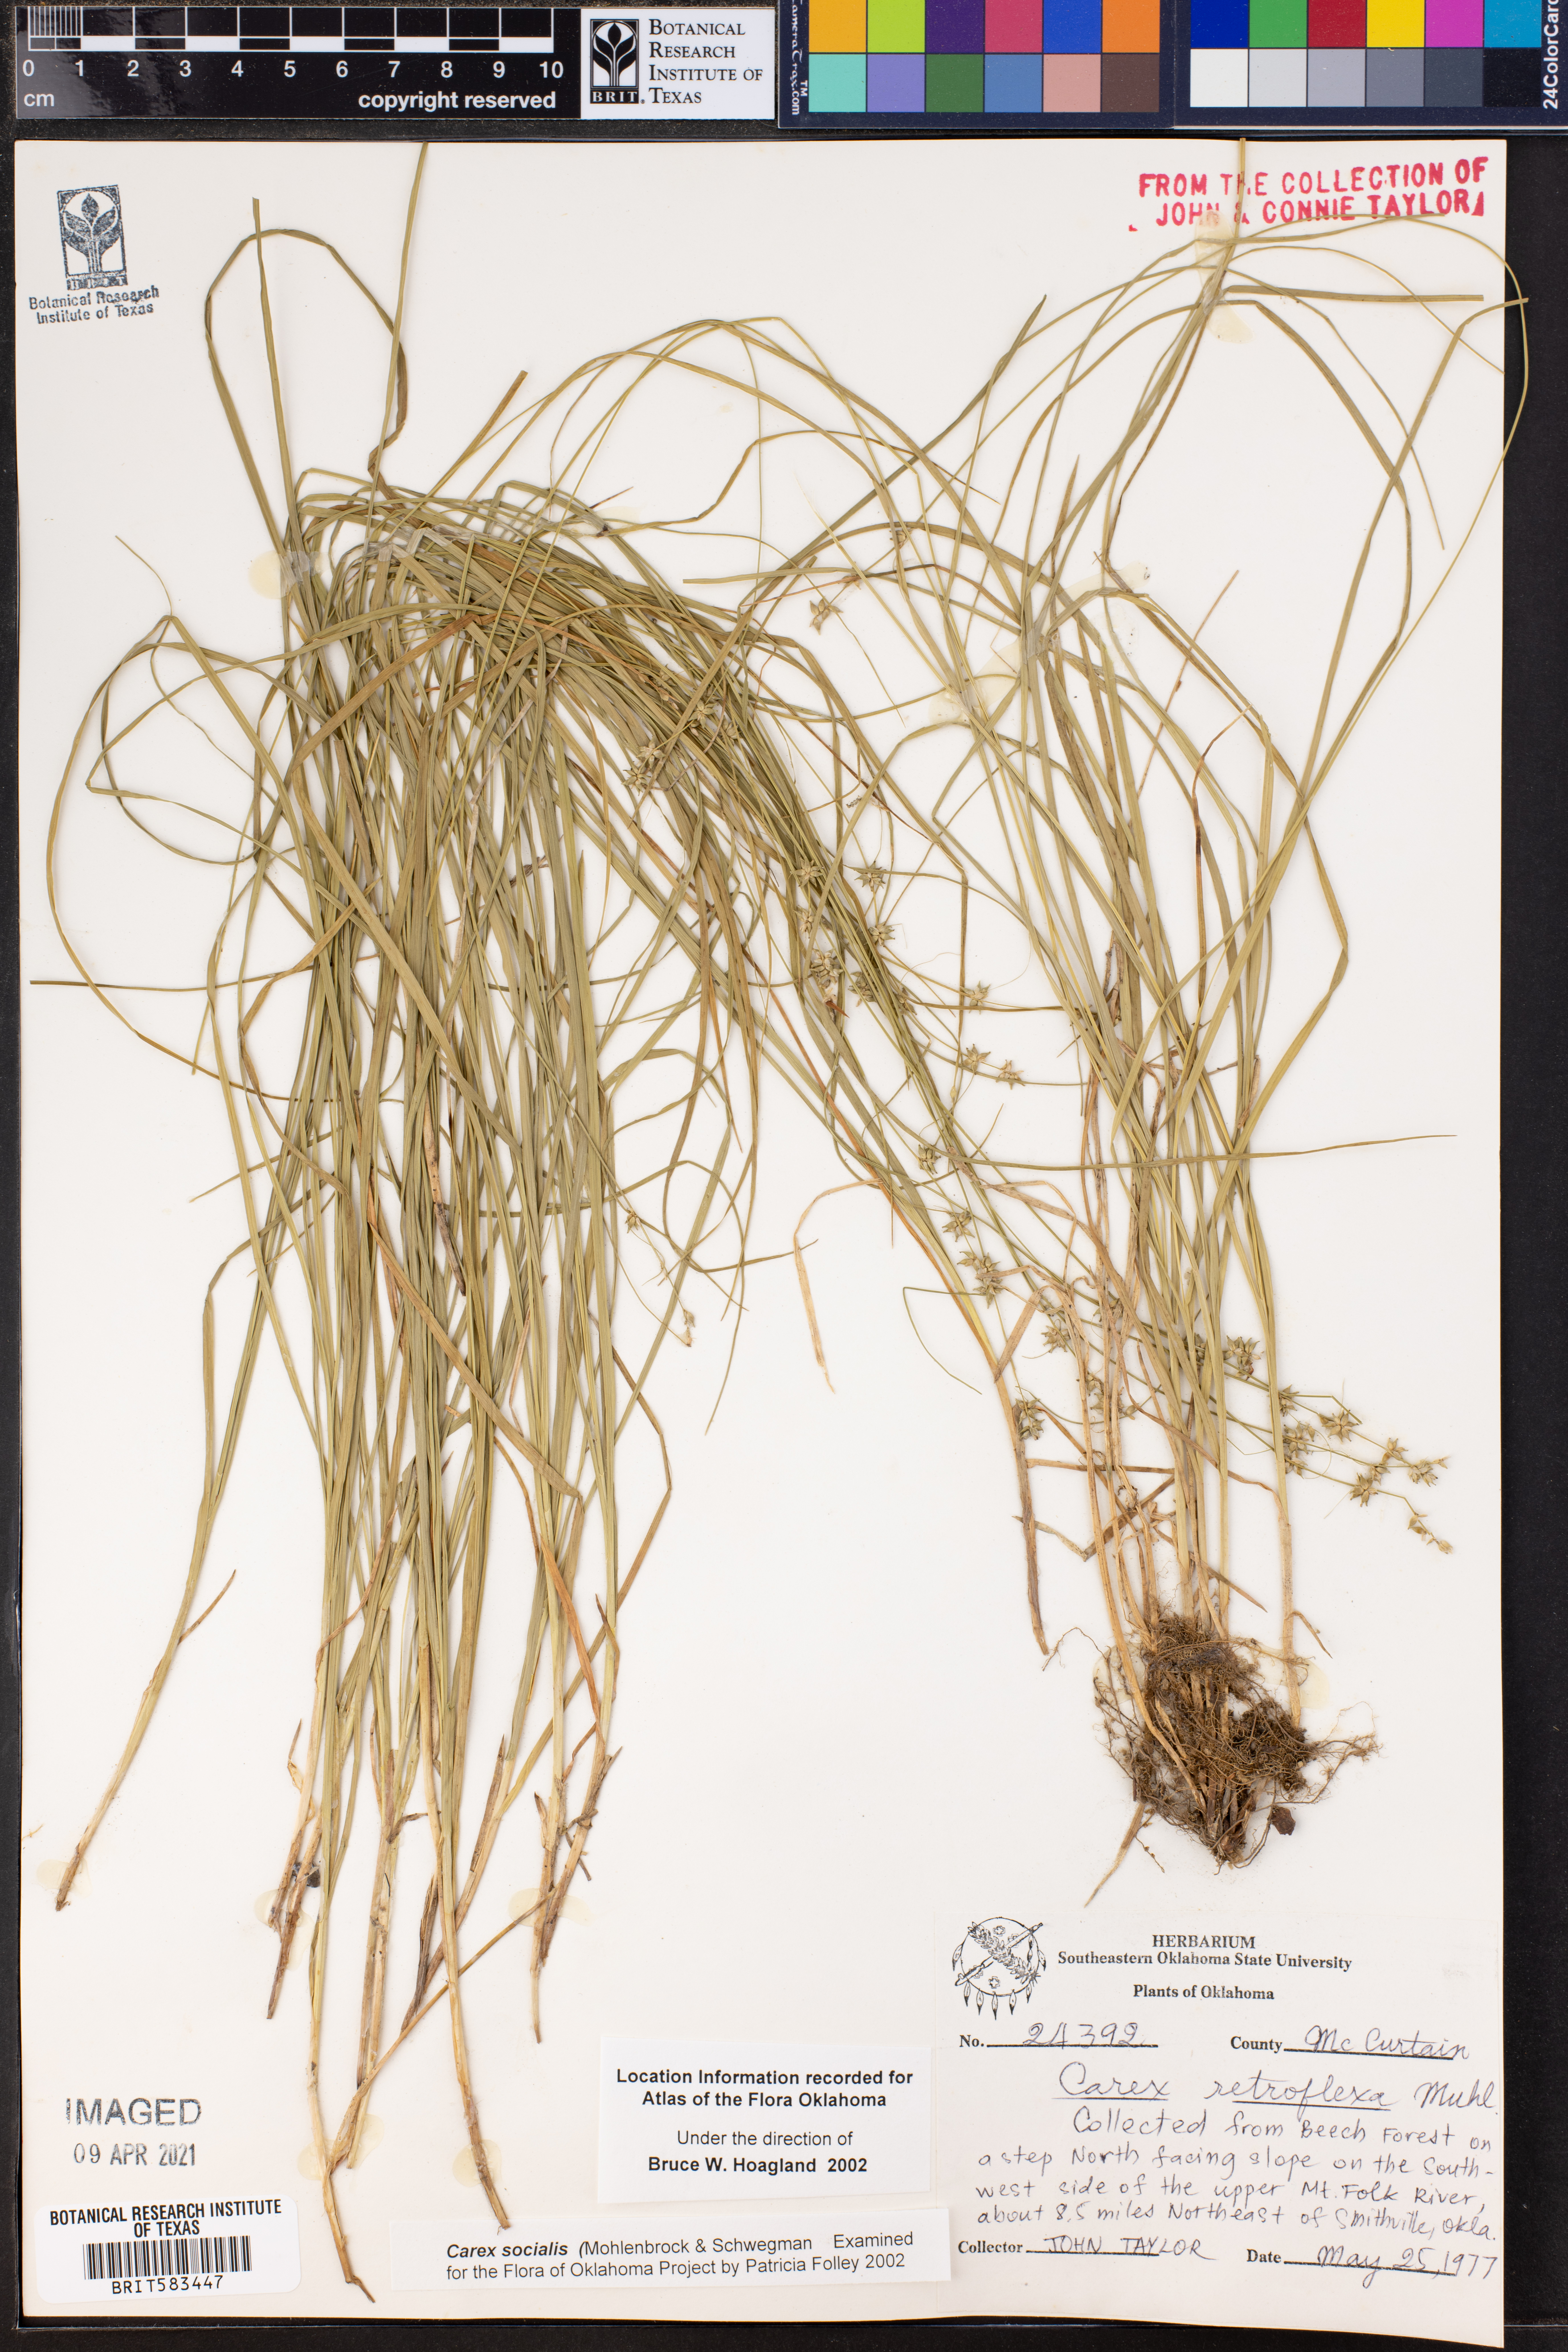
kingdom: Plantae
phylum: Tracheophyta
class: Liliopsida
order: Poales
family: Cyperaceae
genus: Carex
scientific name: Carex socialis
